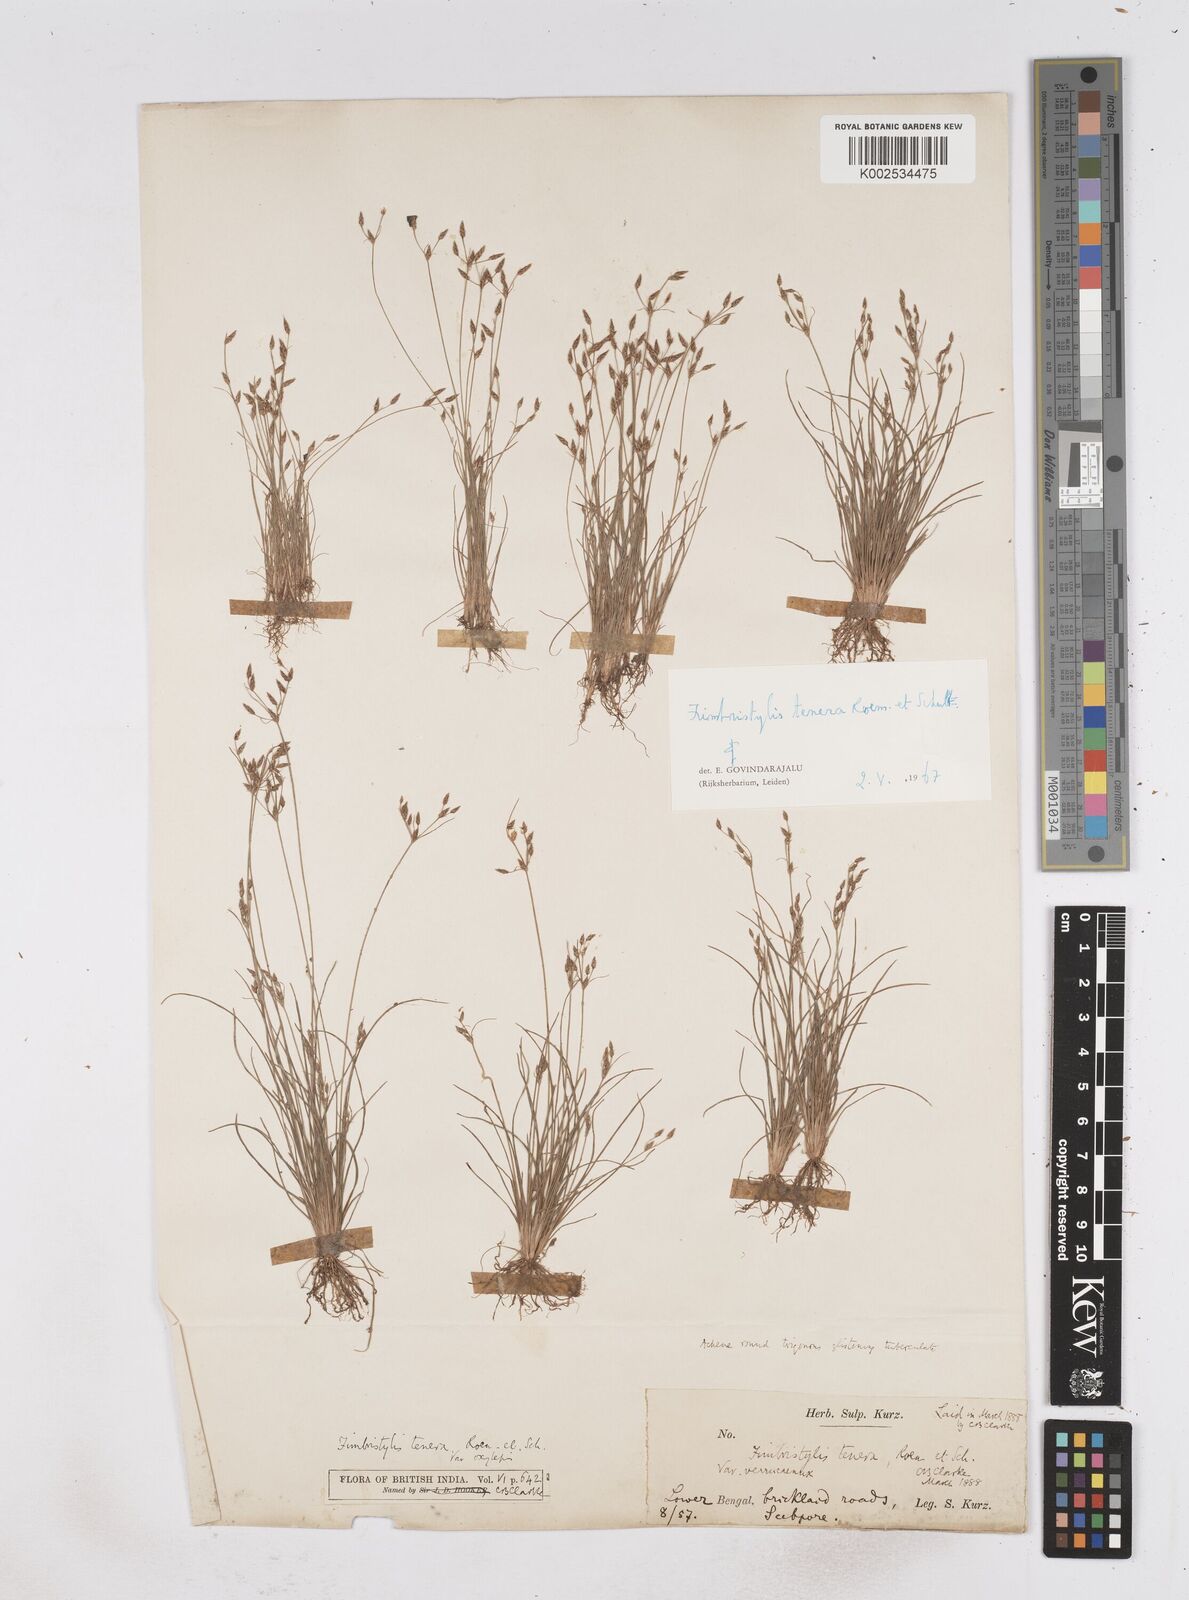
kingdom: Plantae
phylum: Tracheophyta
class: Liliopsida
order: Poales
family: Cyperaceae
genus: Fimbristylis
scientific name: Fimbristylis tenera
